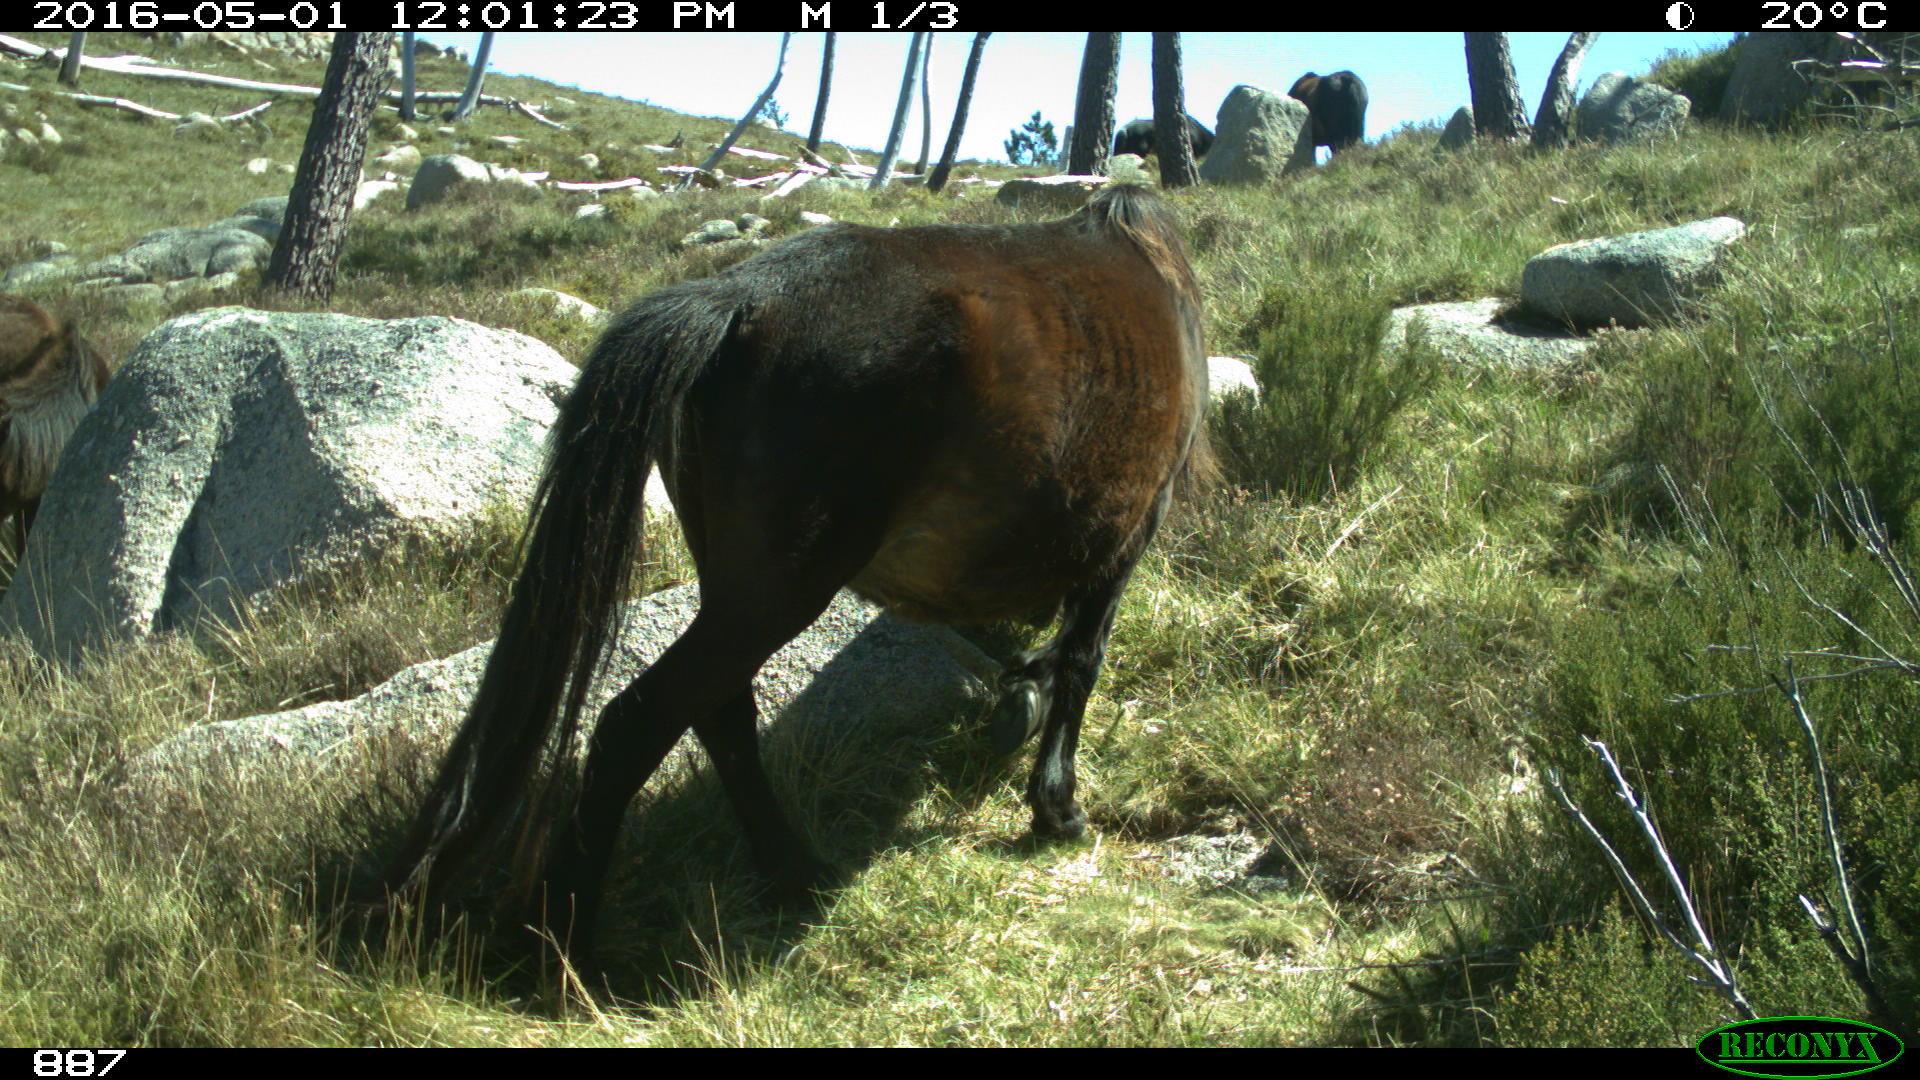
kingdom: Animalia
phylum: Chordata
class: Mammalia
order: Perissodactyla
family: Equidae
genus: Equus
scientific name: Equus caballus
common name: Horse
